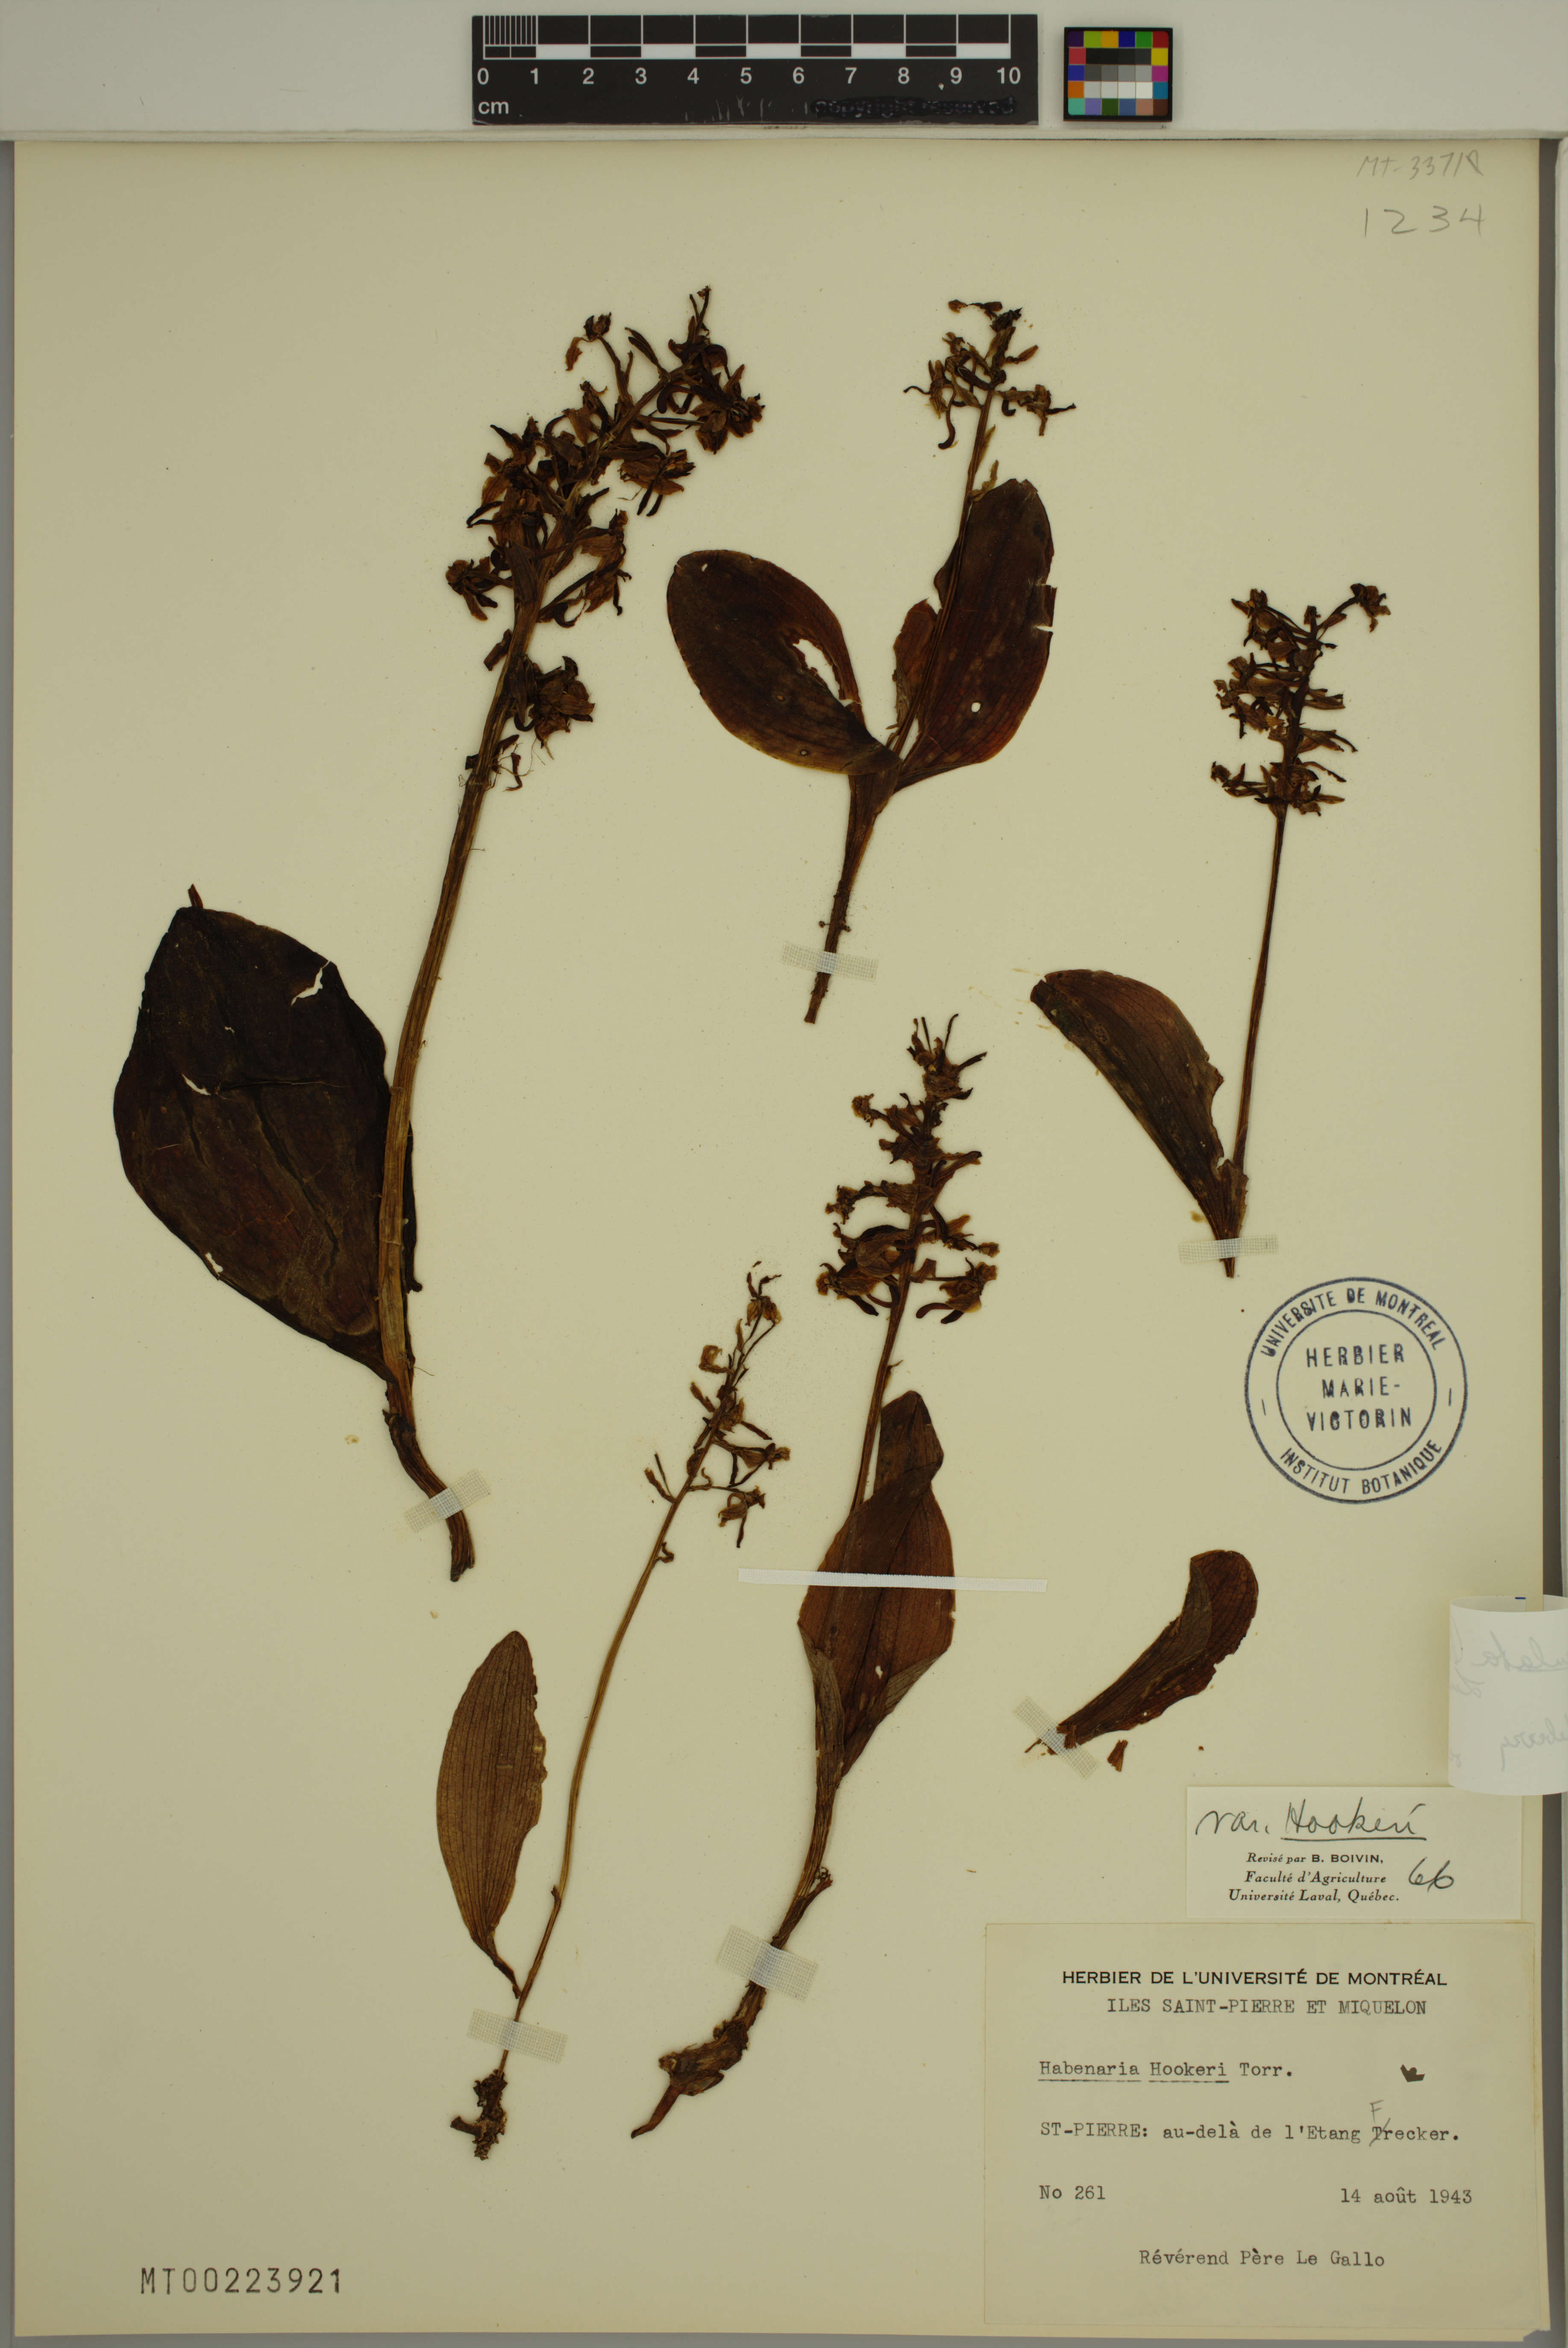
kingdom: Plantae
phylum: Tracheophyta
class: Liliopsida
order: Asparagales
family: Orchidaceae
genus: Platanthera
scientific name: Platanthera orbiculata
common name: Large round-leaved orchid
